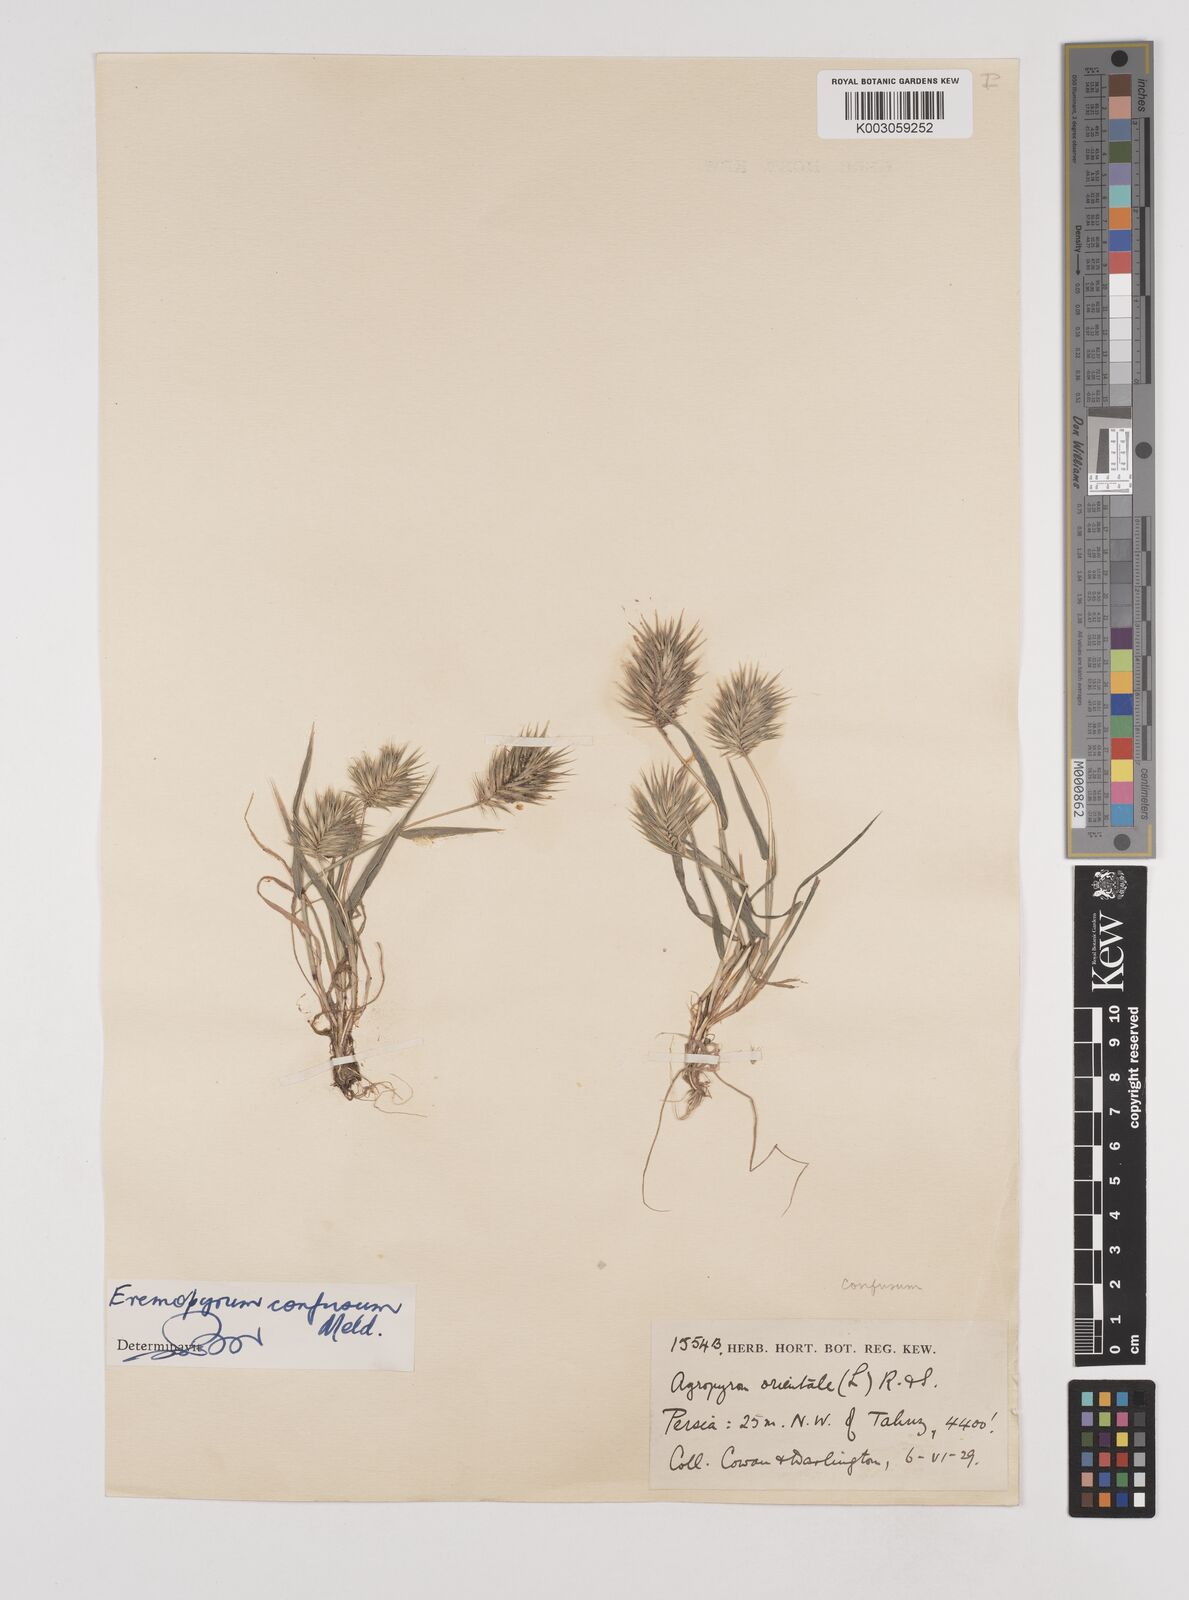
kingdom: Plantae
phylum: Tracheophyta
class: Liliopsida
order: Poales
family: Poaceae
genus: Eremopyrum
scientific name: Eremopyrum bonaepartis
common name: Tapertip false wheatgrass
